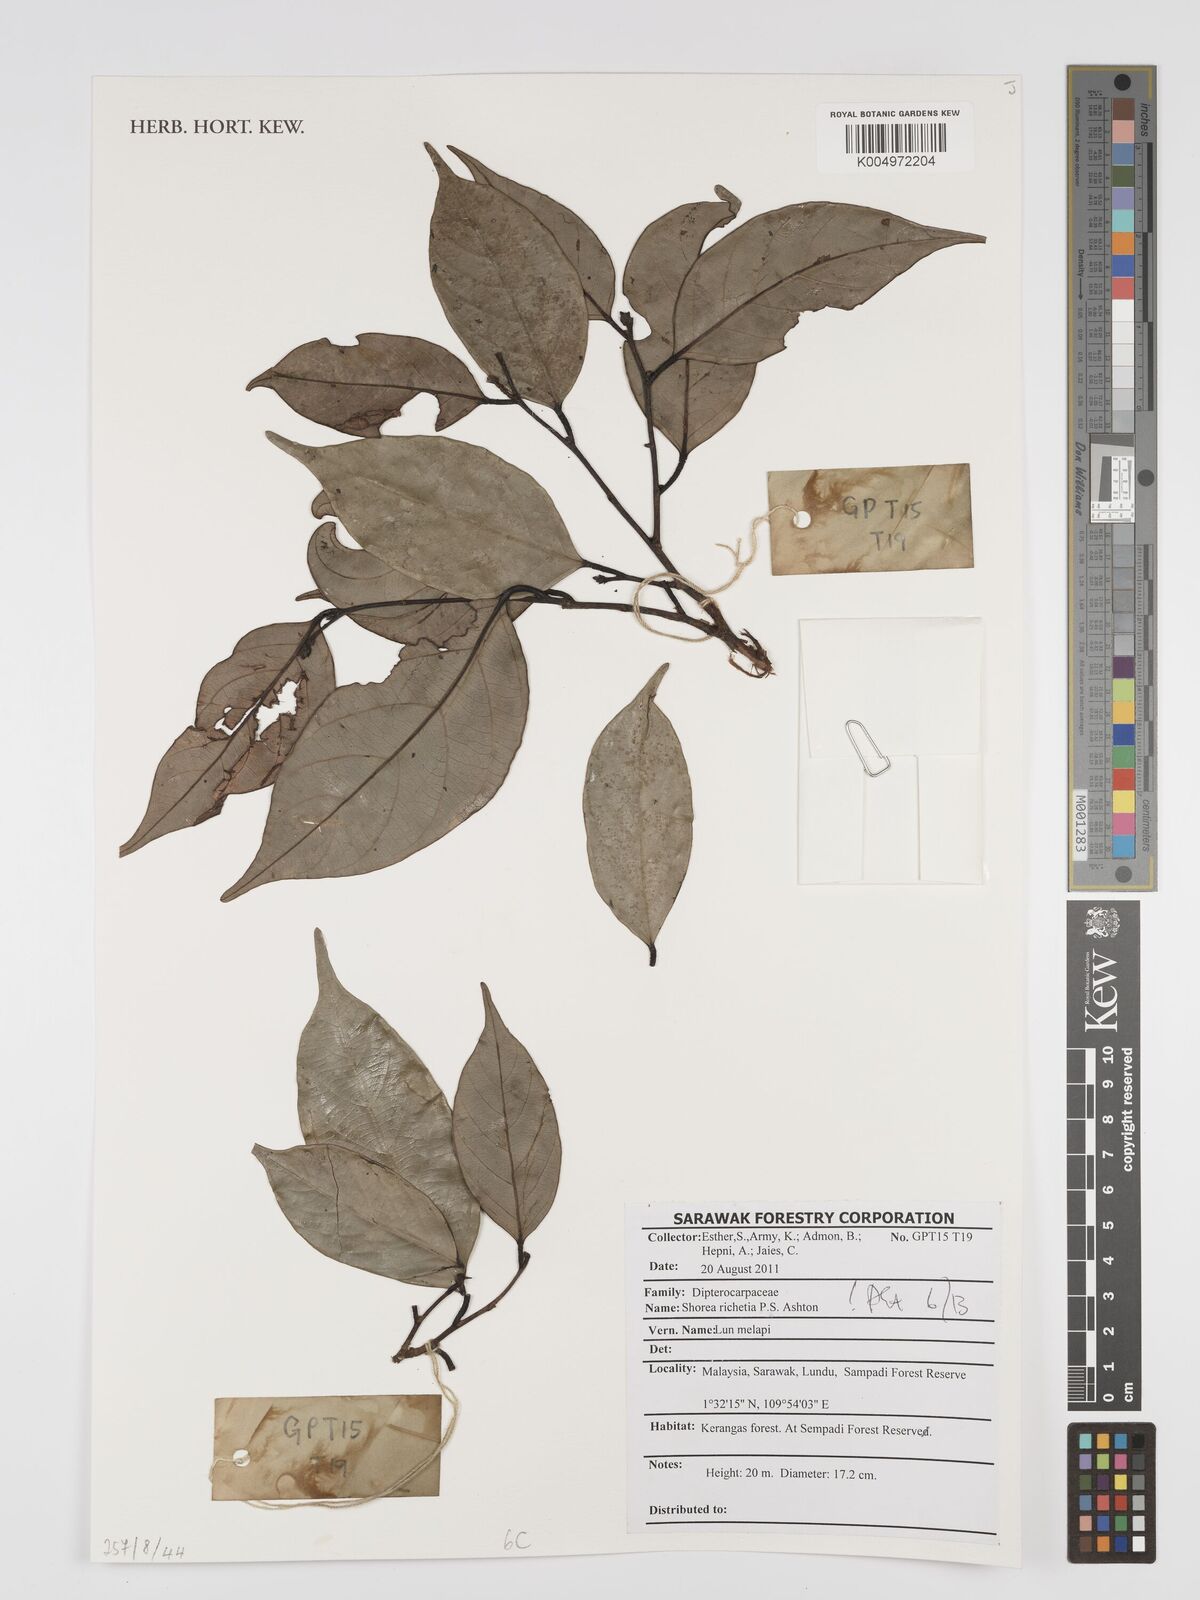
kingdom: Plantae
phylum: Tracheophyta
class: Magnoliopsida
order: Malvales
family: Dipterocarpaceae
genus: Shorea
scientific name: Shorea richetia
